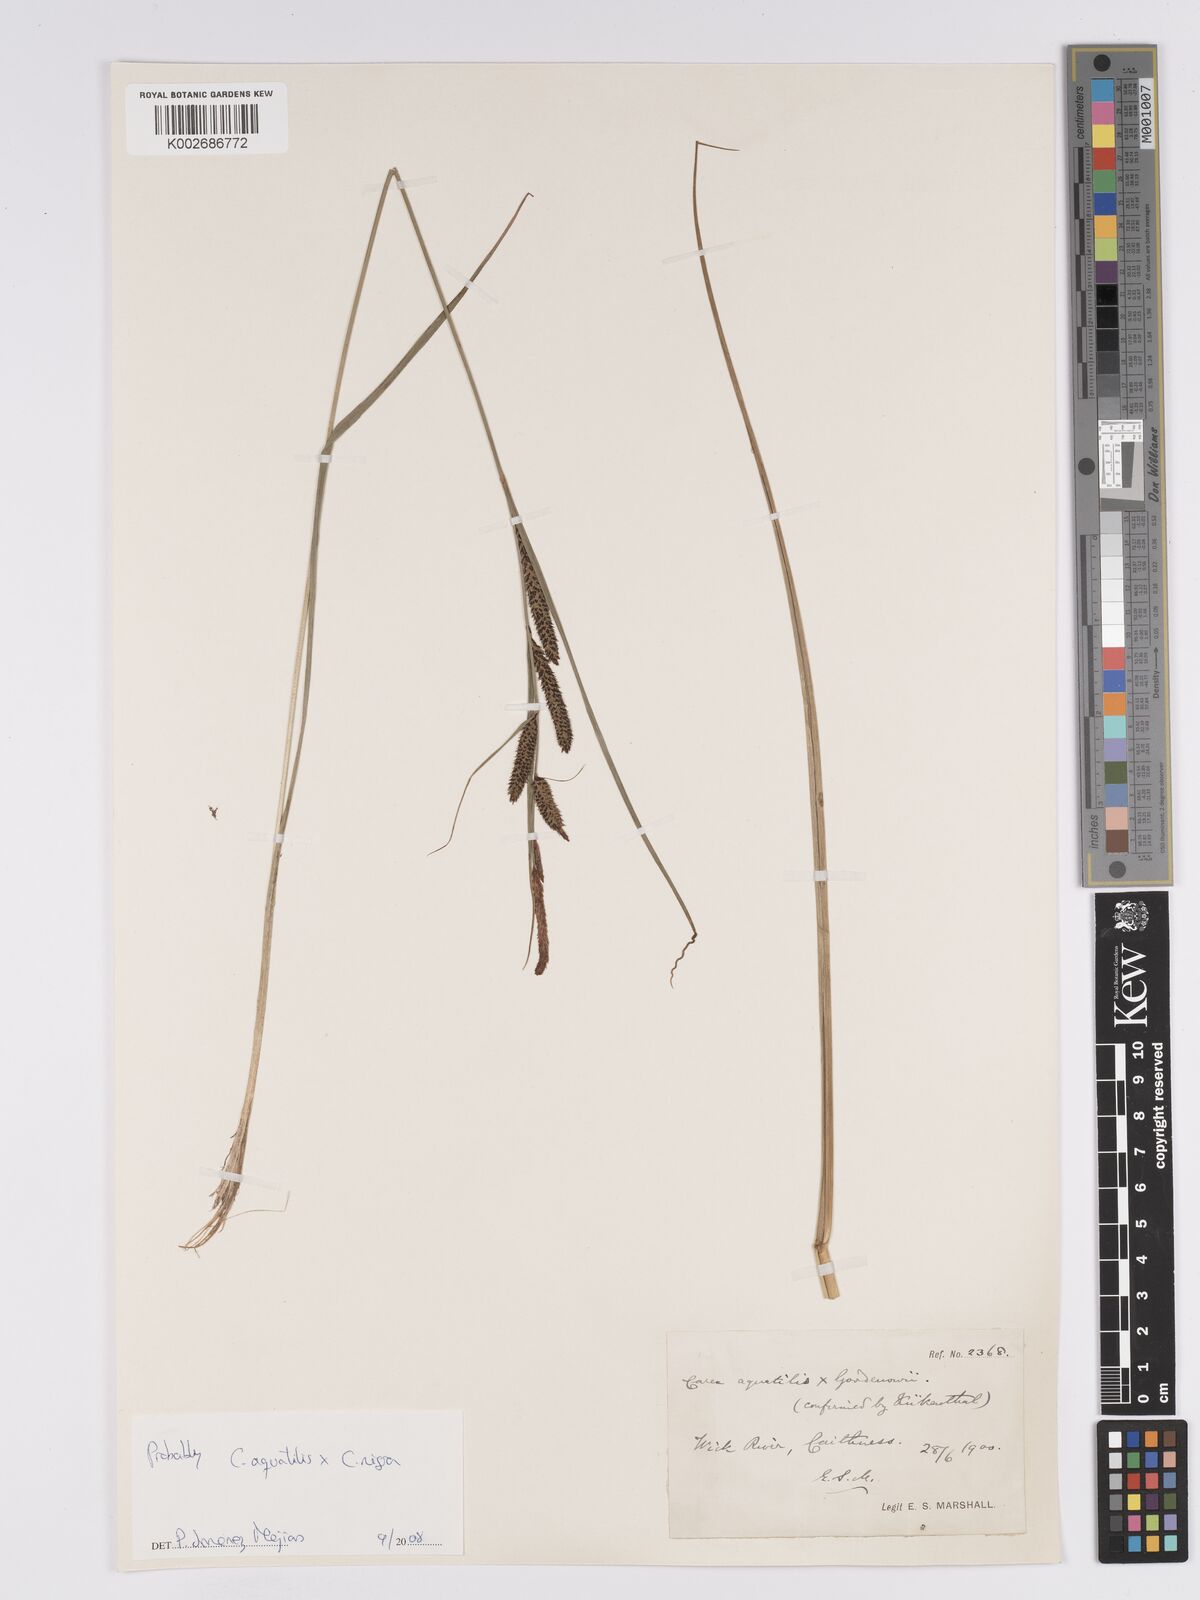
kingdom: Plantae
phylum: Tracheophyta
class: Liliopsida
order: Poales
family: Cyperaceae
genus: Carex
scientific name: Carex microcarpa
